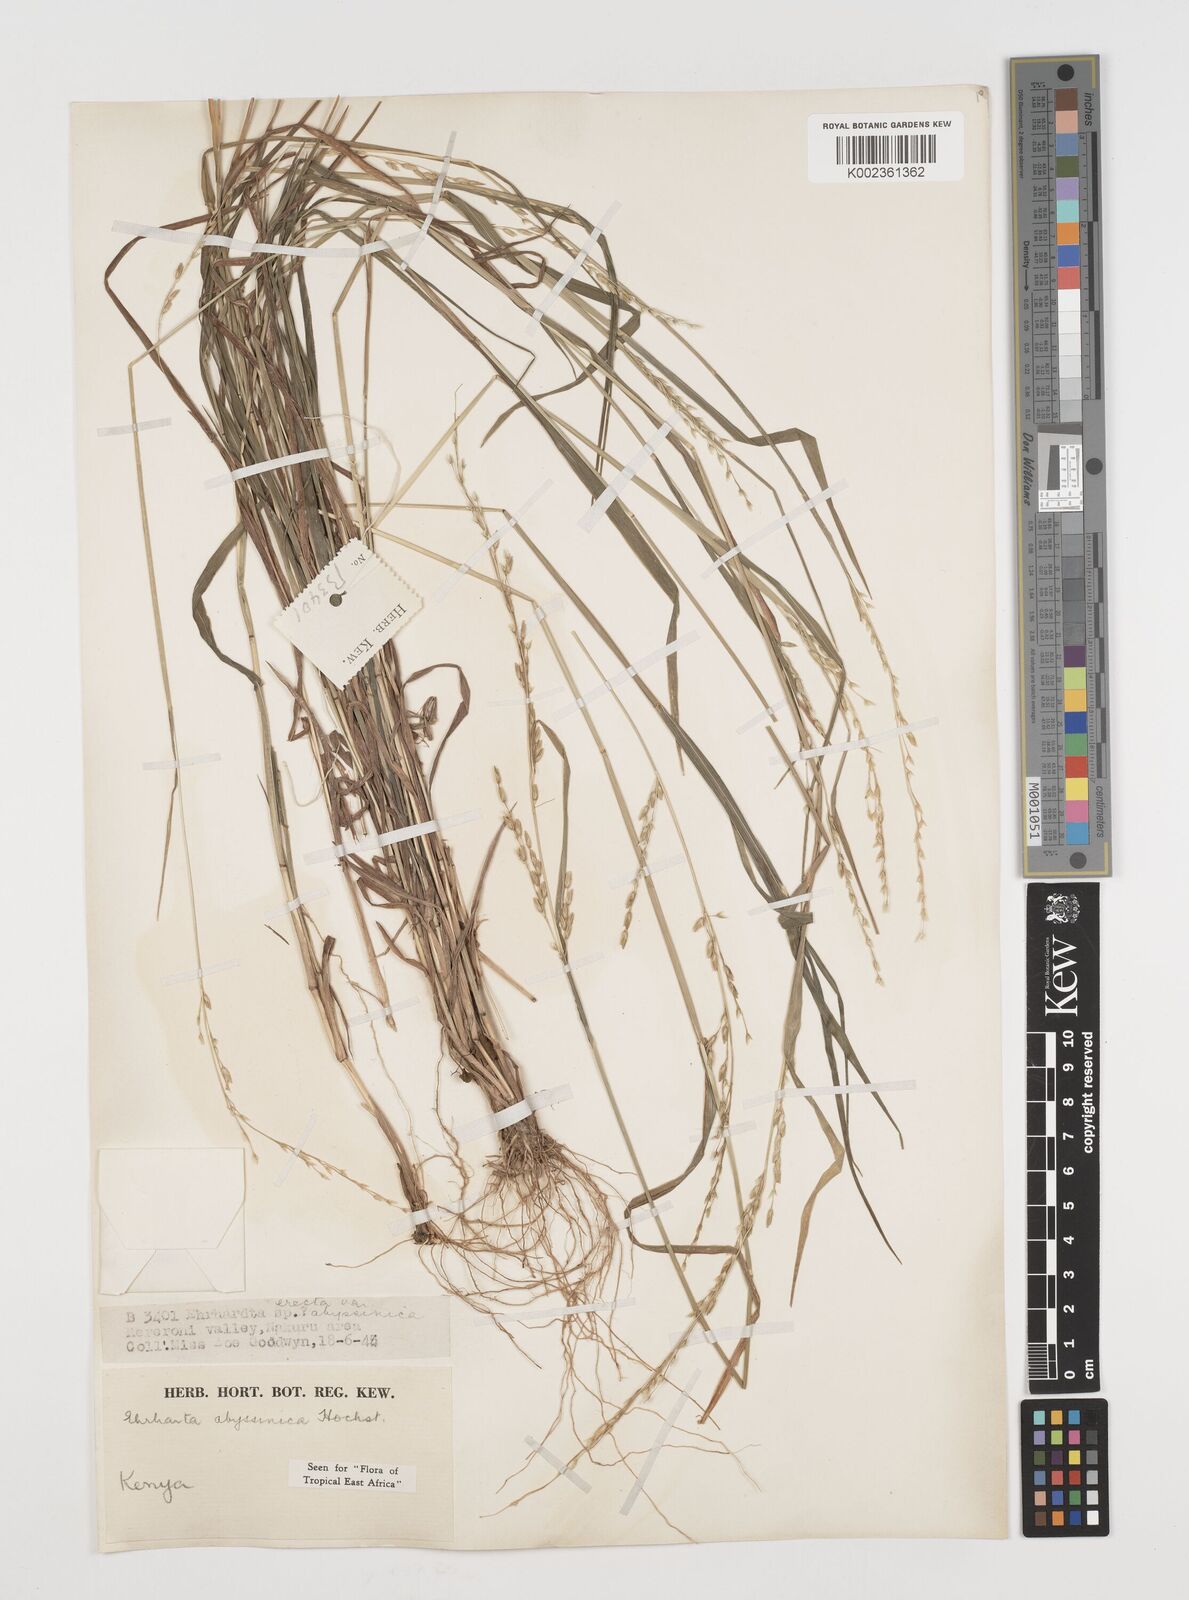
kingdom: Plantae
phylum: Tracheophyta
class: Liliopsida
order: Poales
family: Poaceae
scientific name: Poaceae
